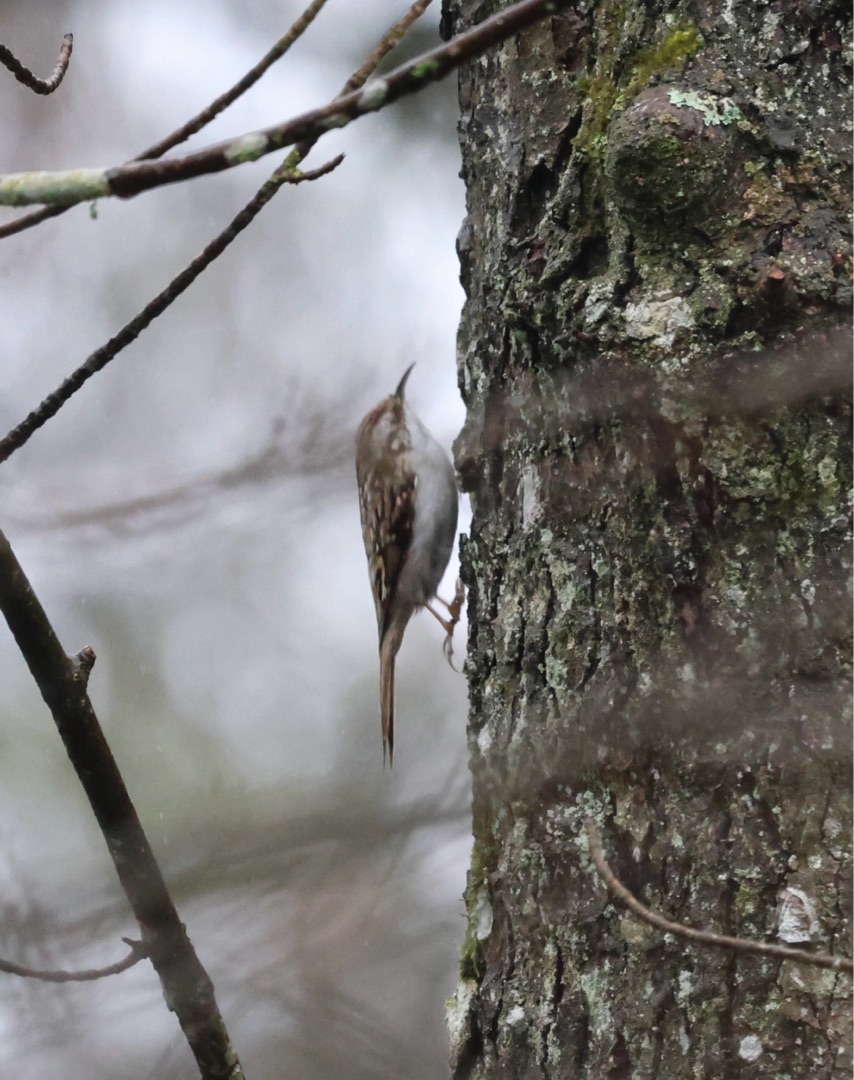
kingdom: Animalia
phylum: Chordata
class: Aves
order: Passeriformes
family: Certhiidae
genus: Certhia
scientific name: Certhia familiaris
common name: Træløber
